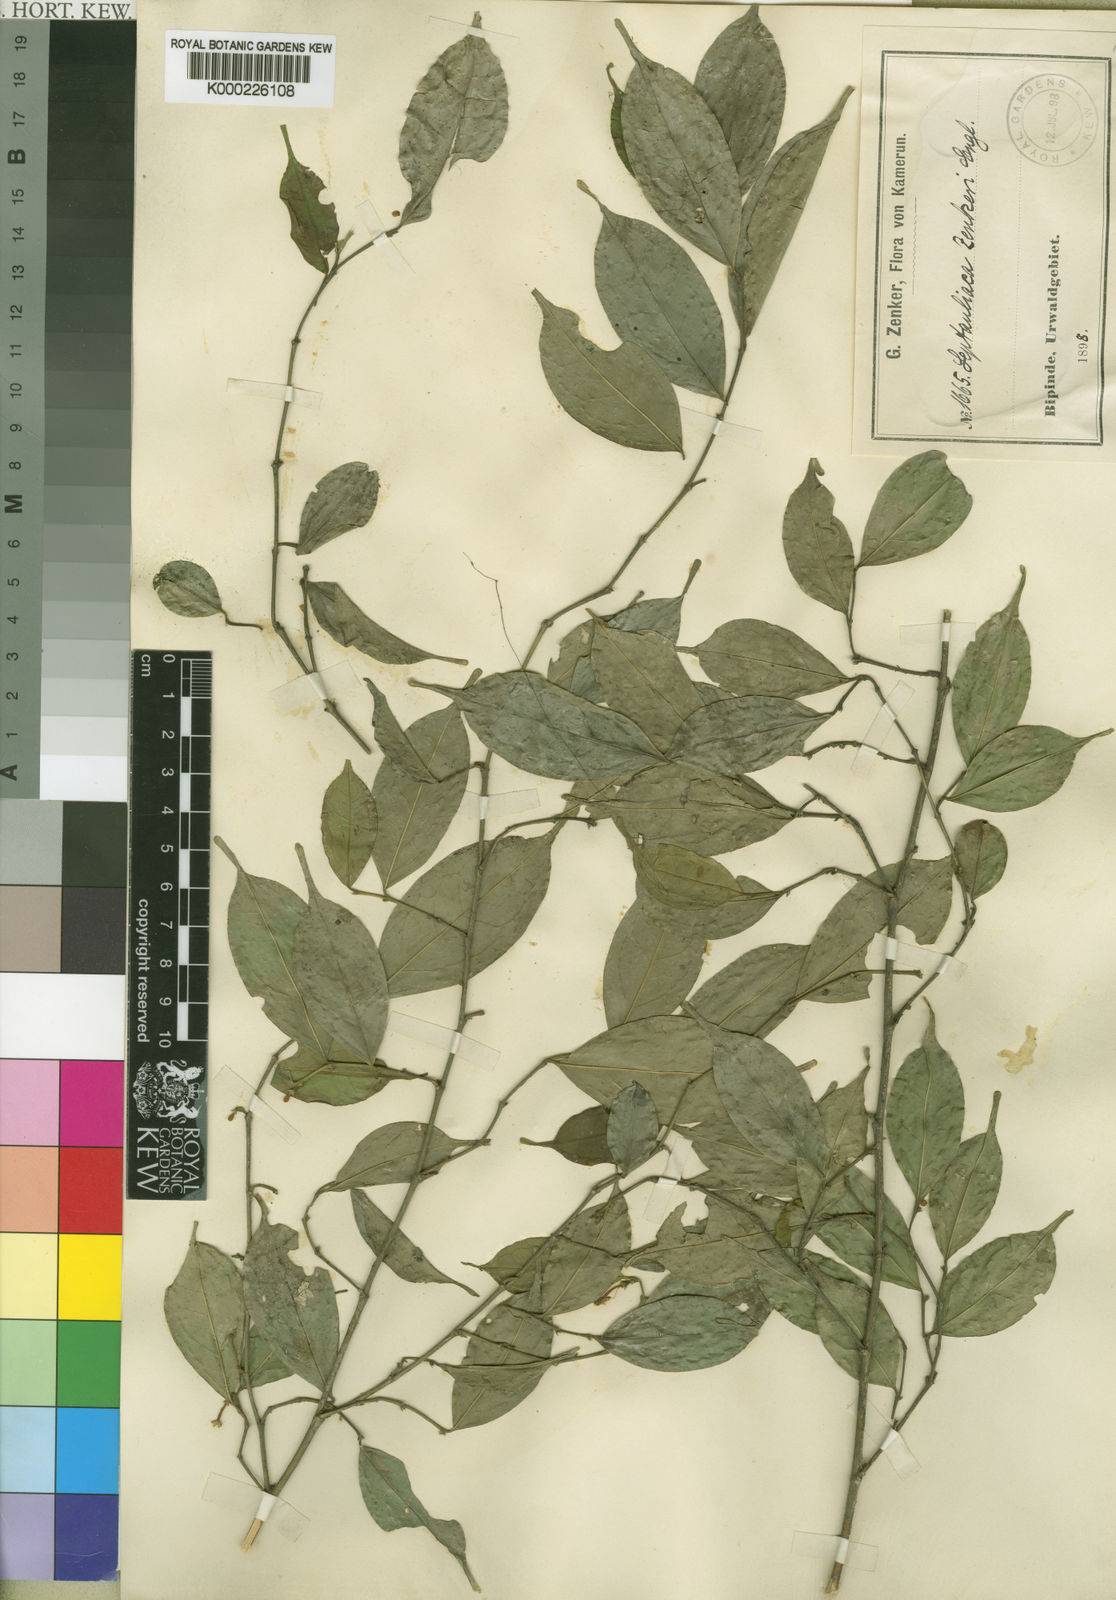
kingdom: Plantae
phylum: Tracheophyta
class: Magnoliopsida
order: Cardiopteridales
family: Cardiopteridaceae
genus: Leptaulus
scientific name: Leptaulus congolanus
